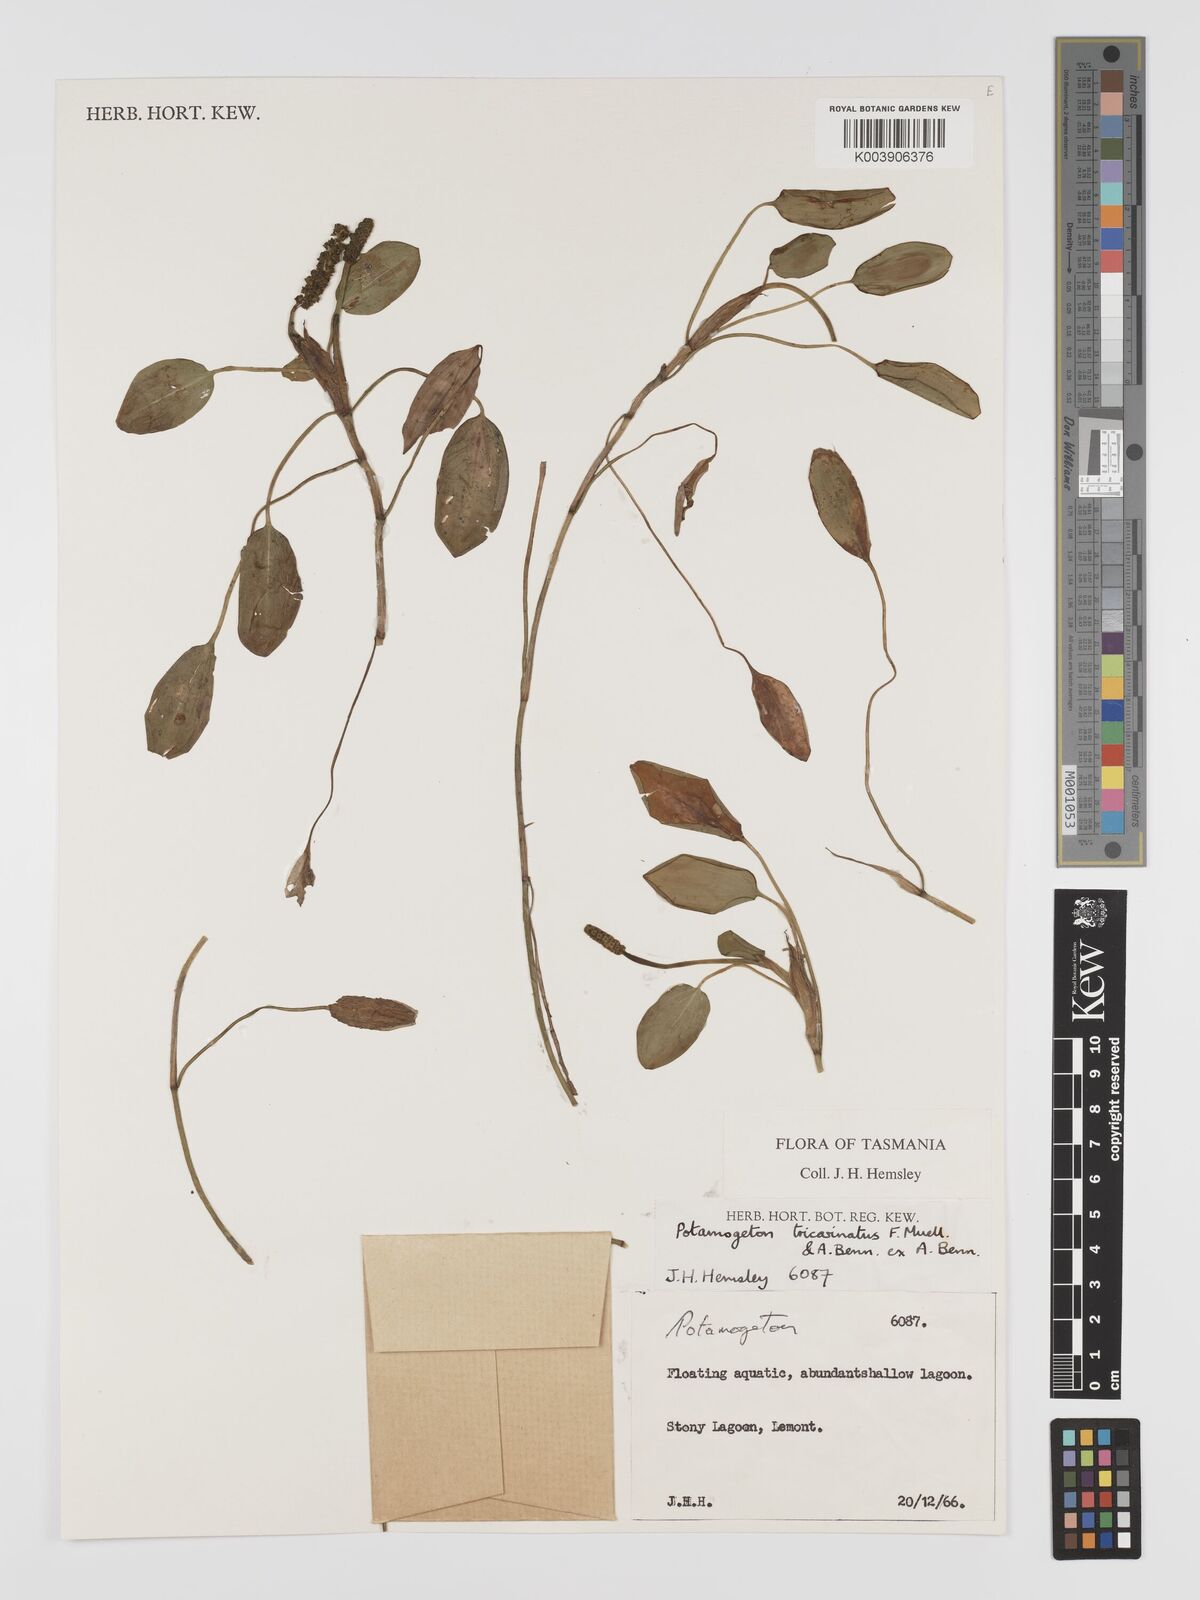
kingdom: Plantae
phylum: Tracheophyta
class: Liliopsida
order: Alismatales
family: Potamogetonaceae
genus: Potamogeton
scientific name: Potamogeton tricarinatus
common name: Pondweed
